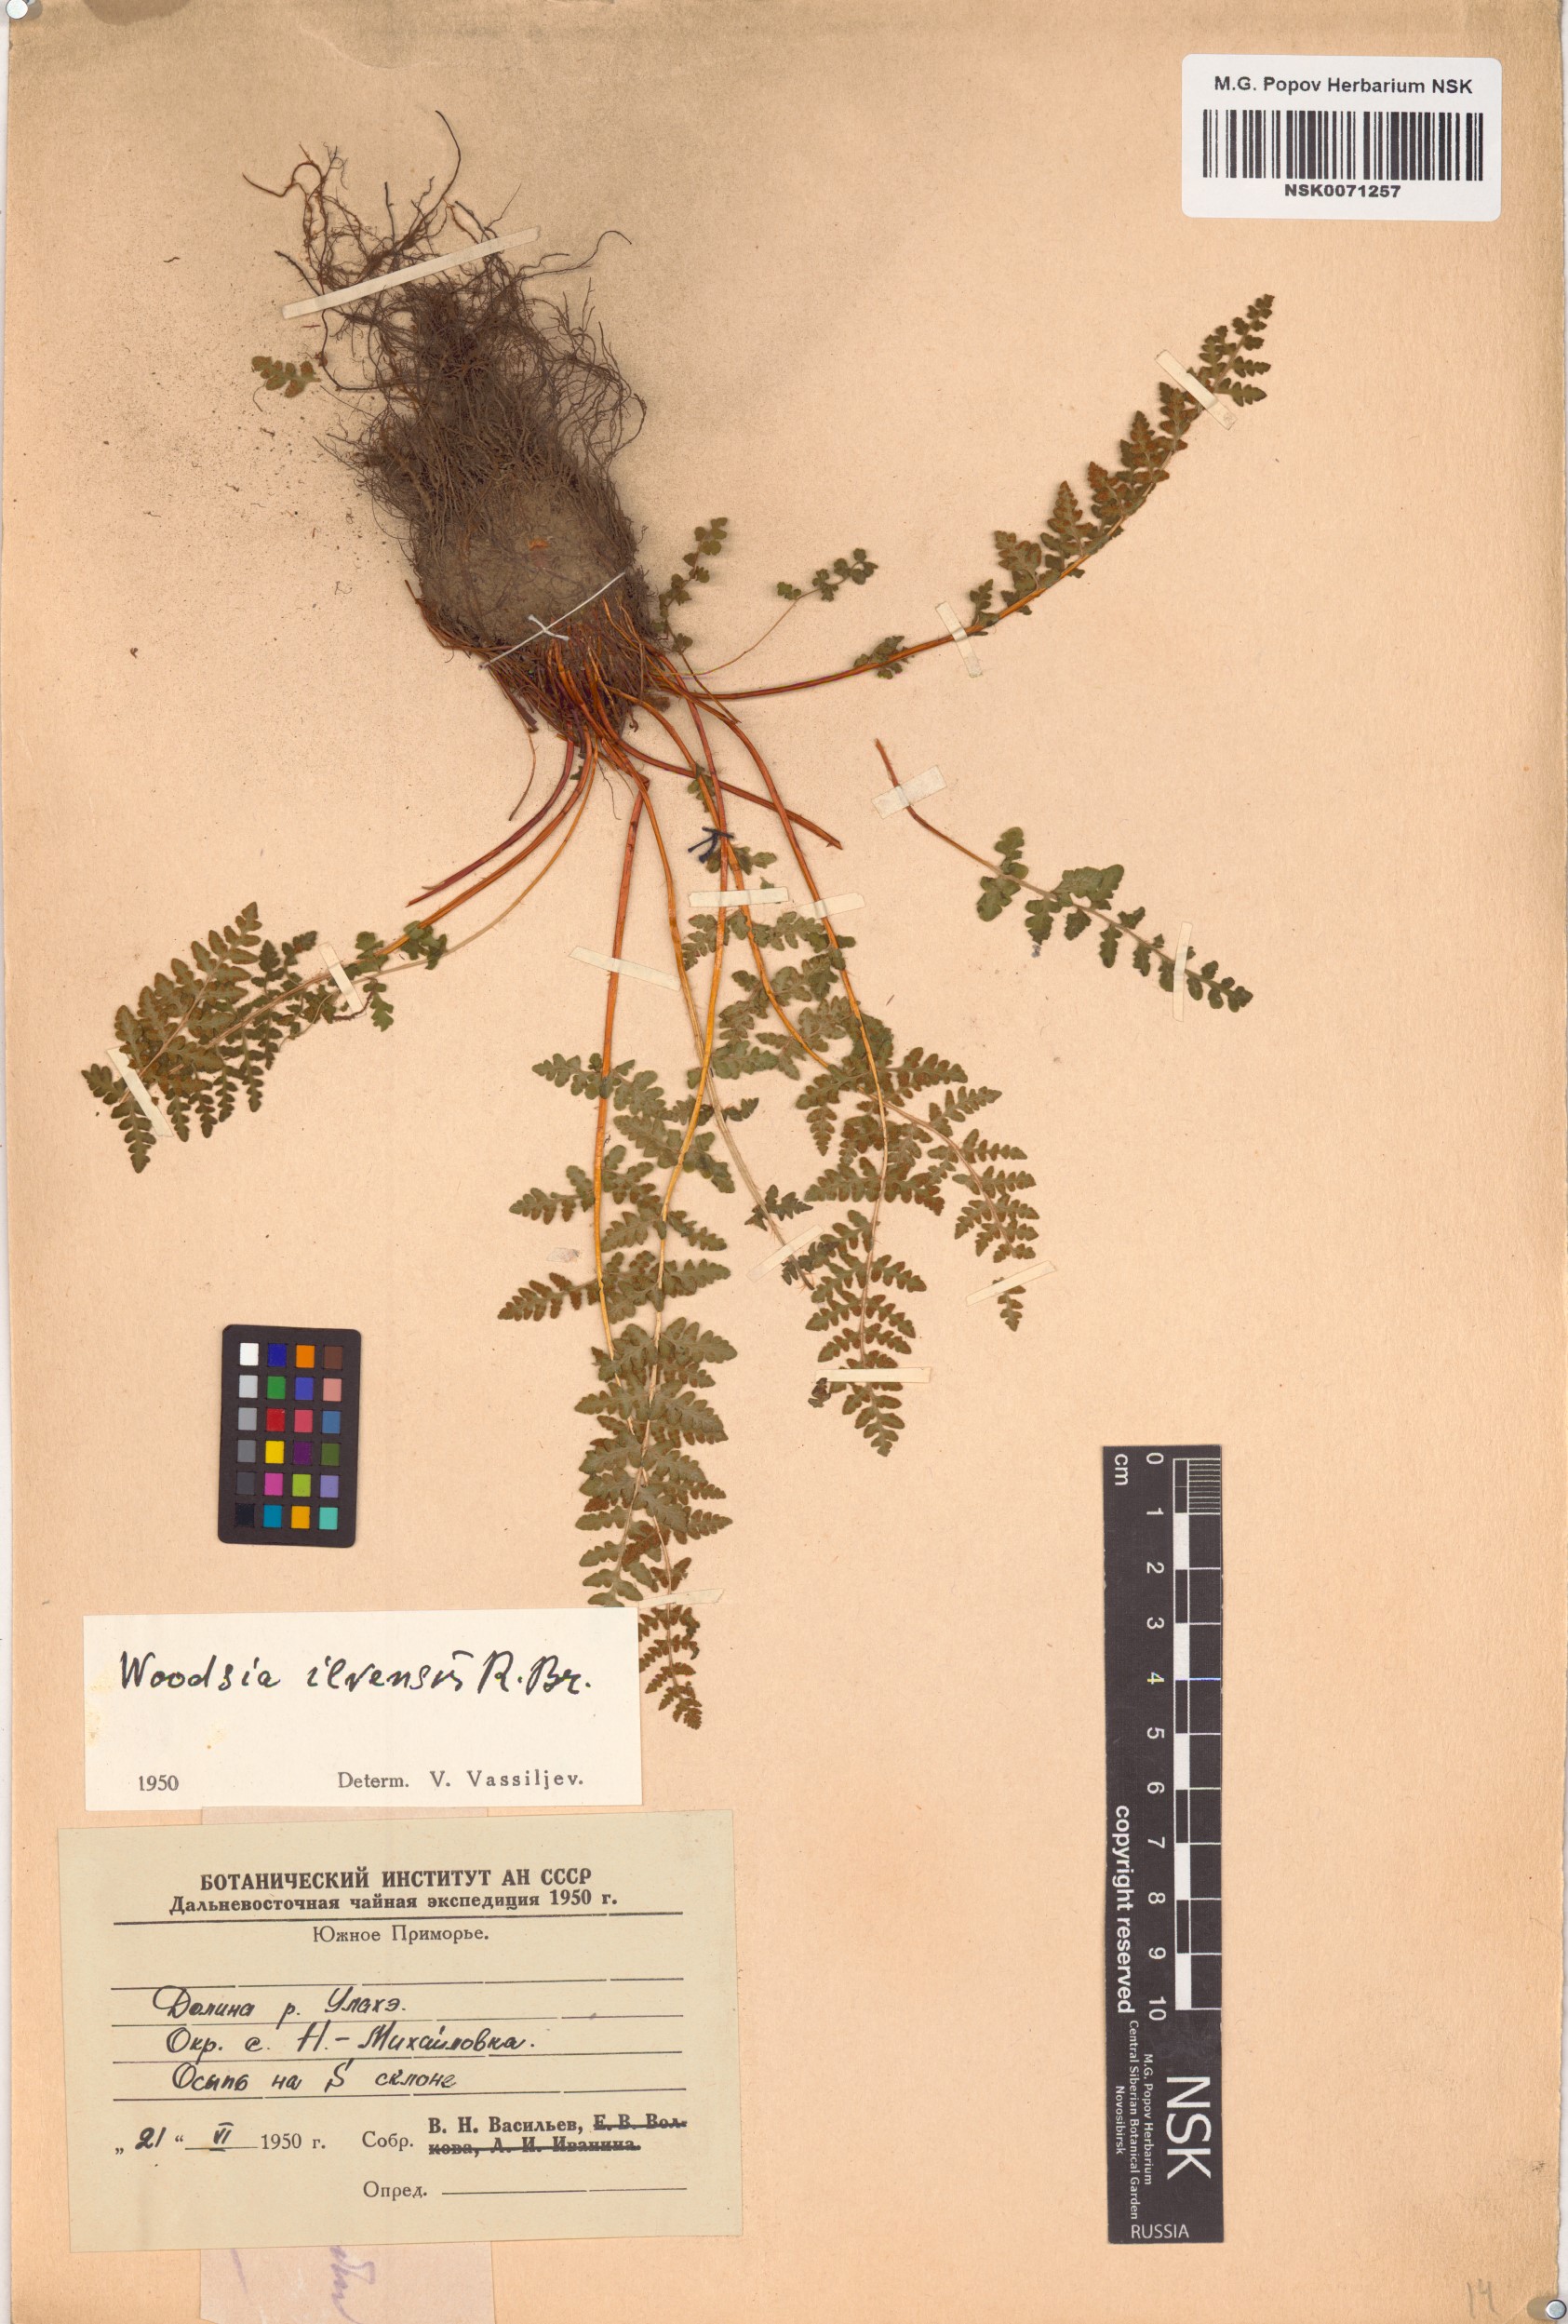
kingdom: Plantae
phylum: Tracheophyta
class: Polypodiopsida
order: Polypodiales
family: Woodsiaceae
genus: Woodsia
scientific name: Woodsia ilvensis
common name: Fragrant woodsia
